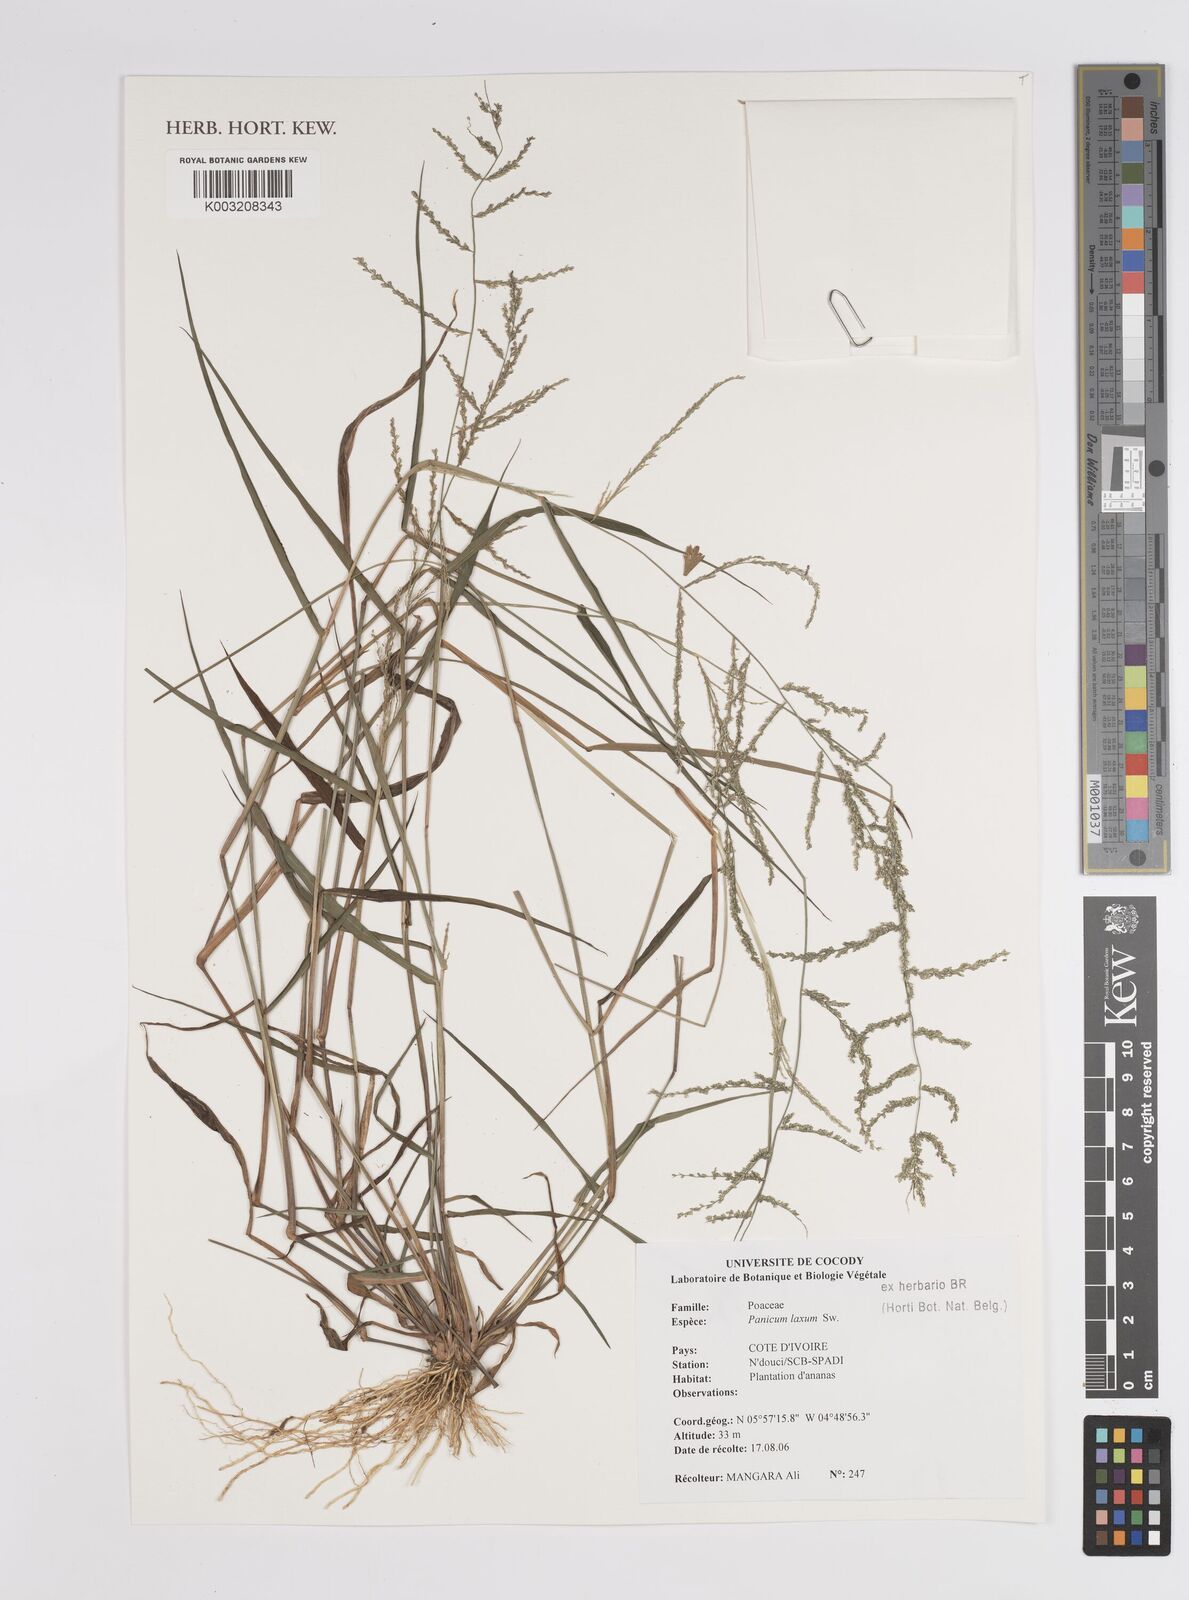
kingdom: Plantae
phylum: Tracheophyta
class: Liliopsida
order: Poales
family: Poaceae
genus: Steinchisma
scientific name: Steinchisma laxum
